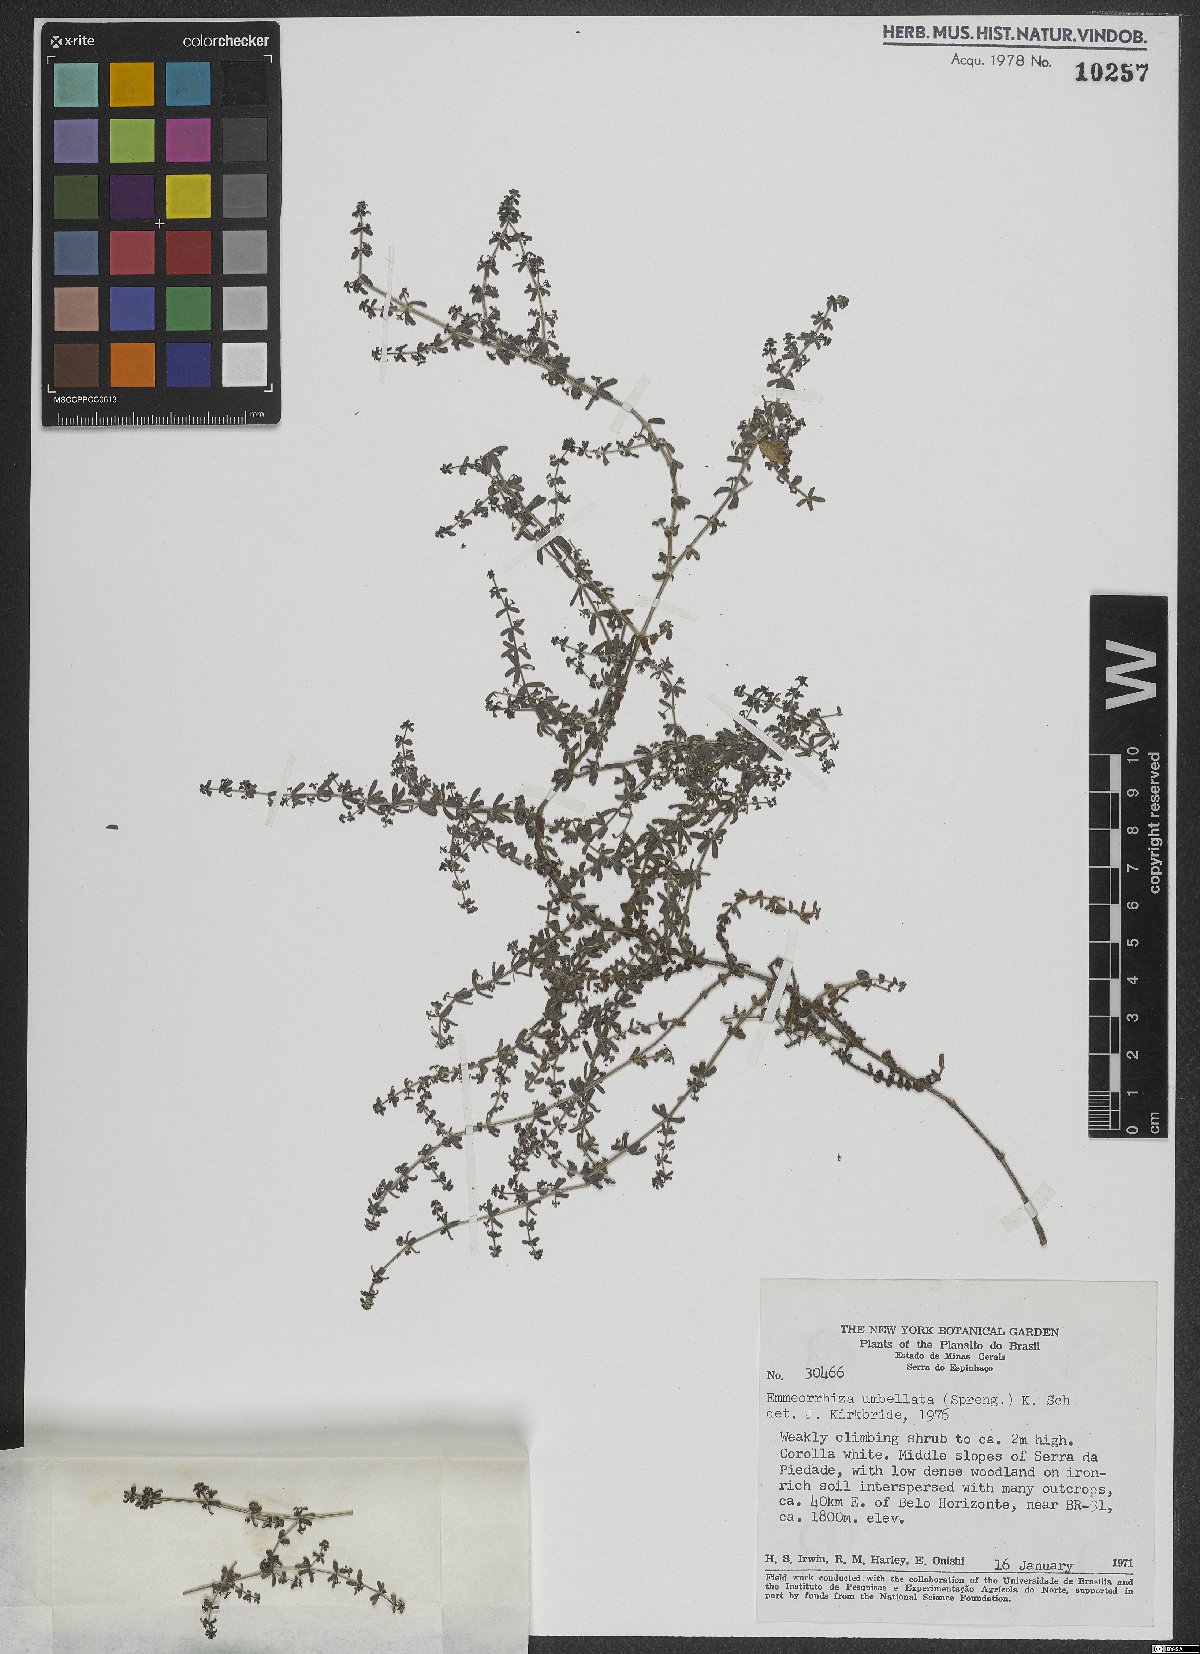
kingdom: Plantae
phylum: Tracheophyta
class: Magnoliopsida
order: Gentianales
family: Rubiaceae
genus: Emmeorhiza
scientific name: Emmeorhiza umbellata
